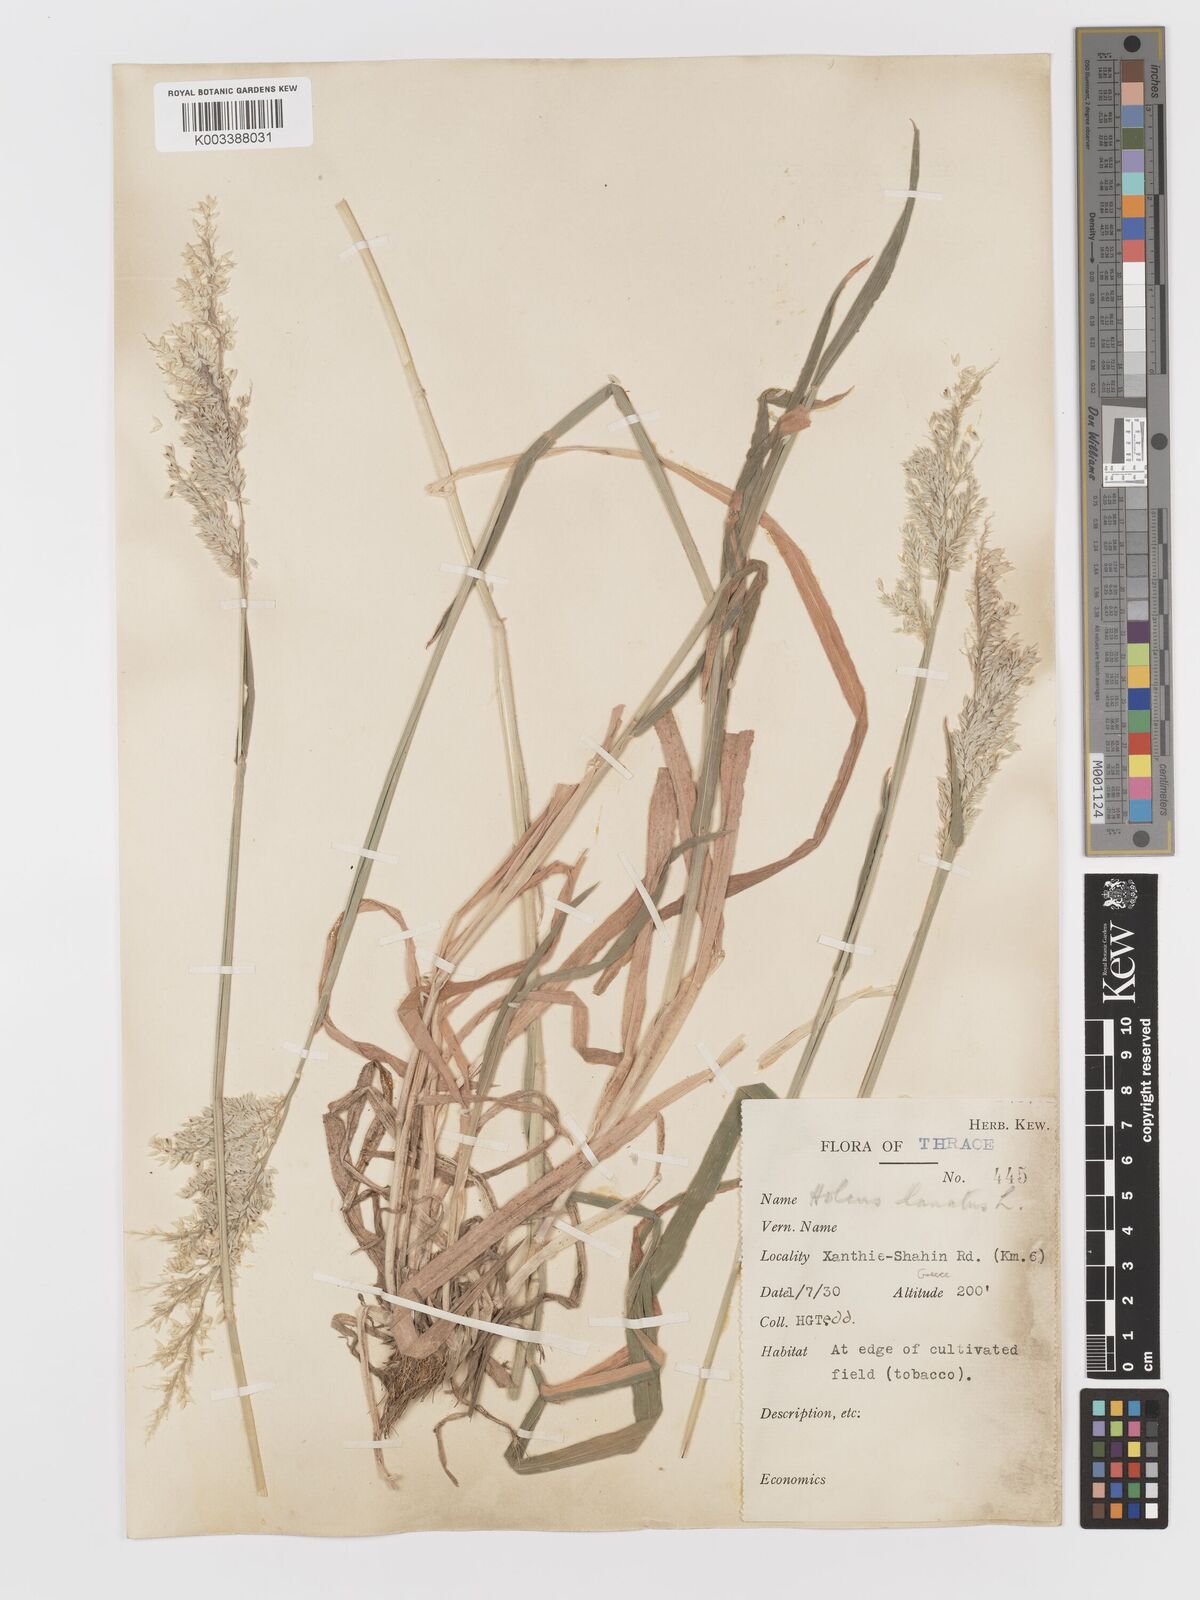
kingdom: Plantae
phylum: Tracheophyta
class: Liliopsida
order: Poales
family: Poaceae
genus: Holcus
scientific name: Holcus lanatus
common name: Yorkshire-fog
